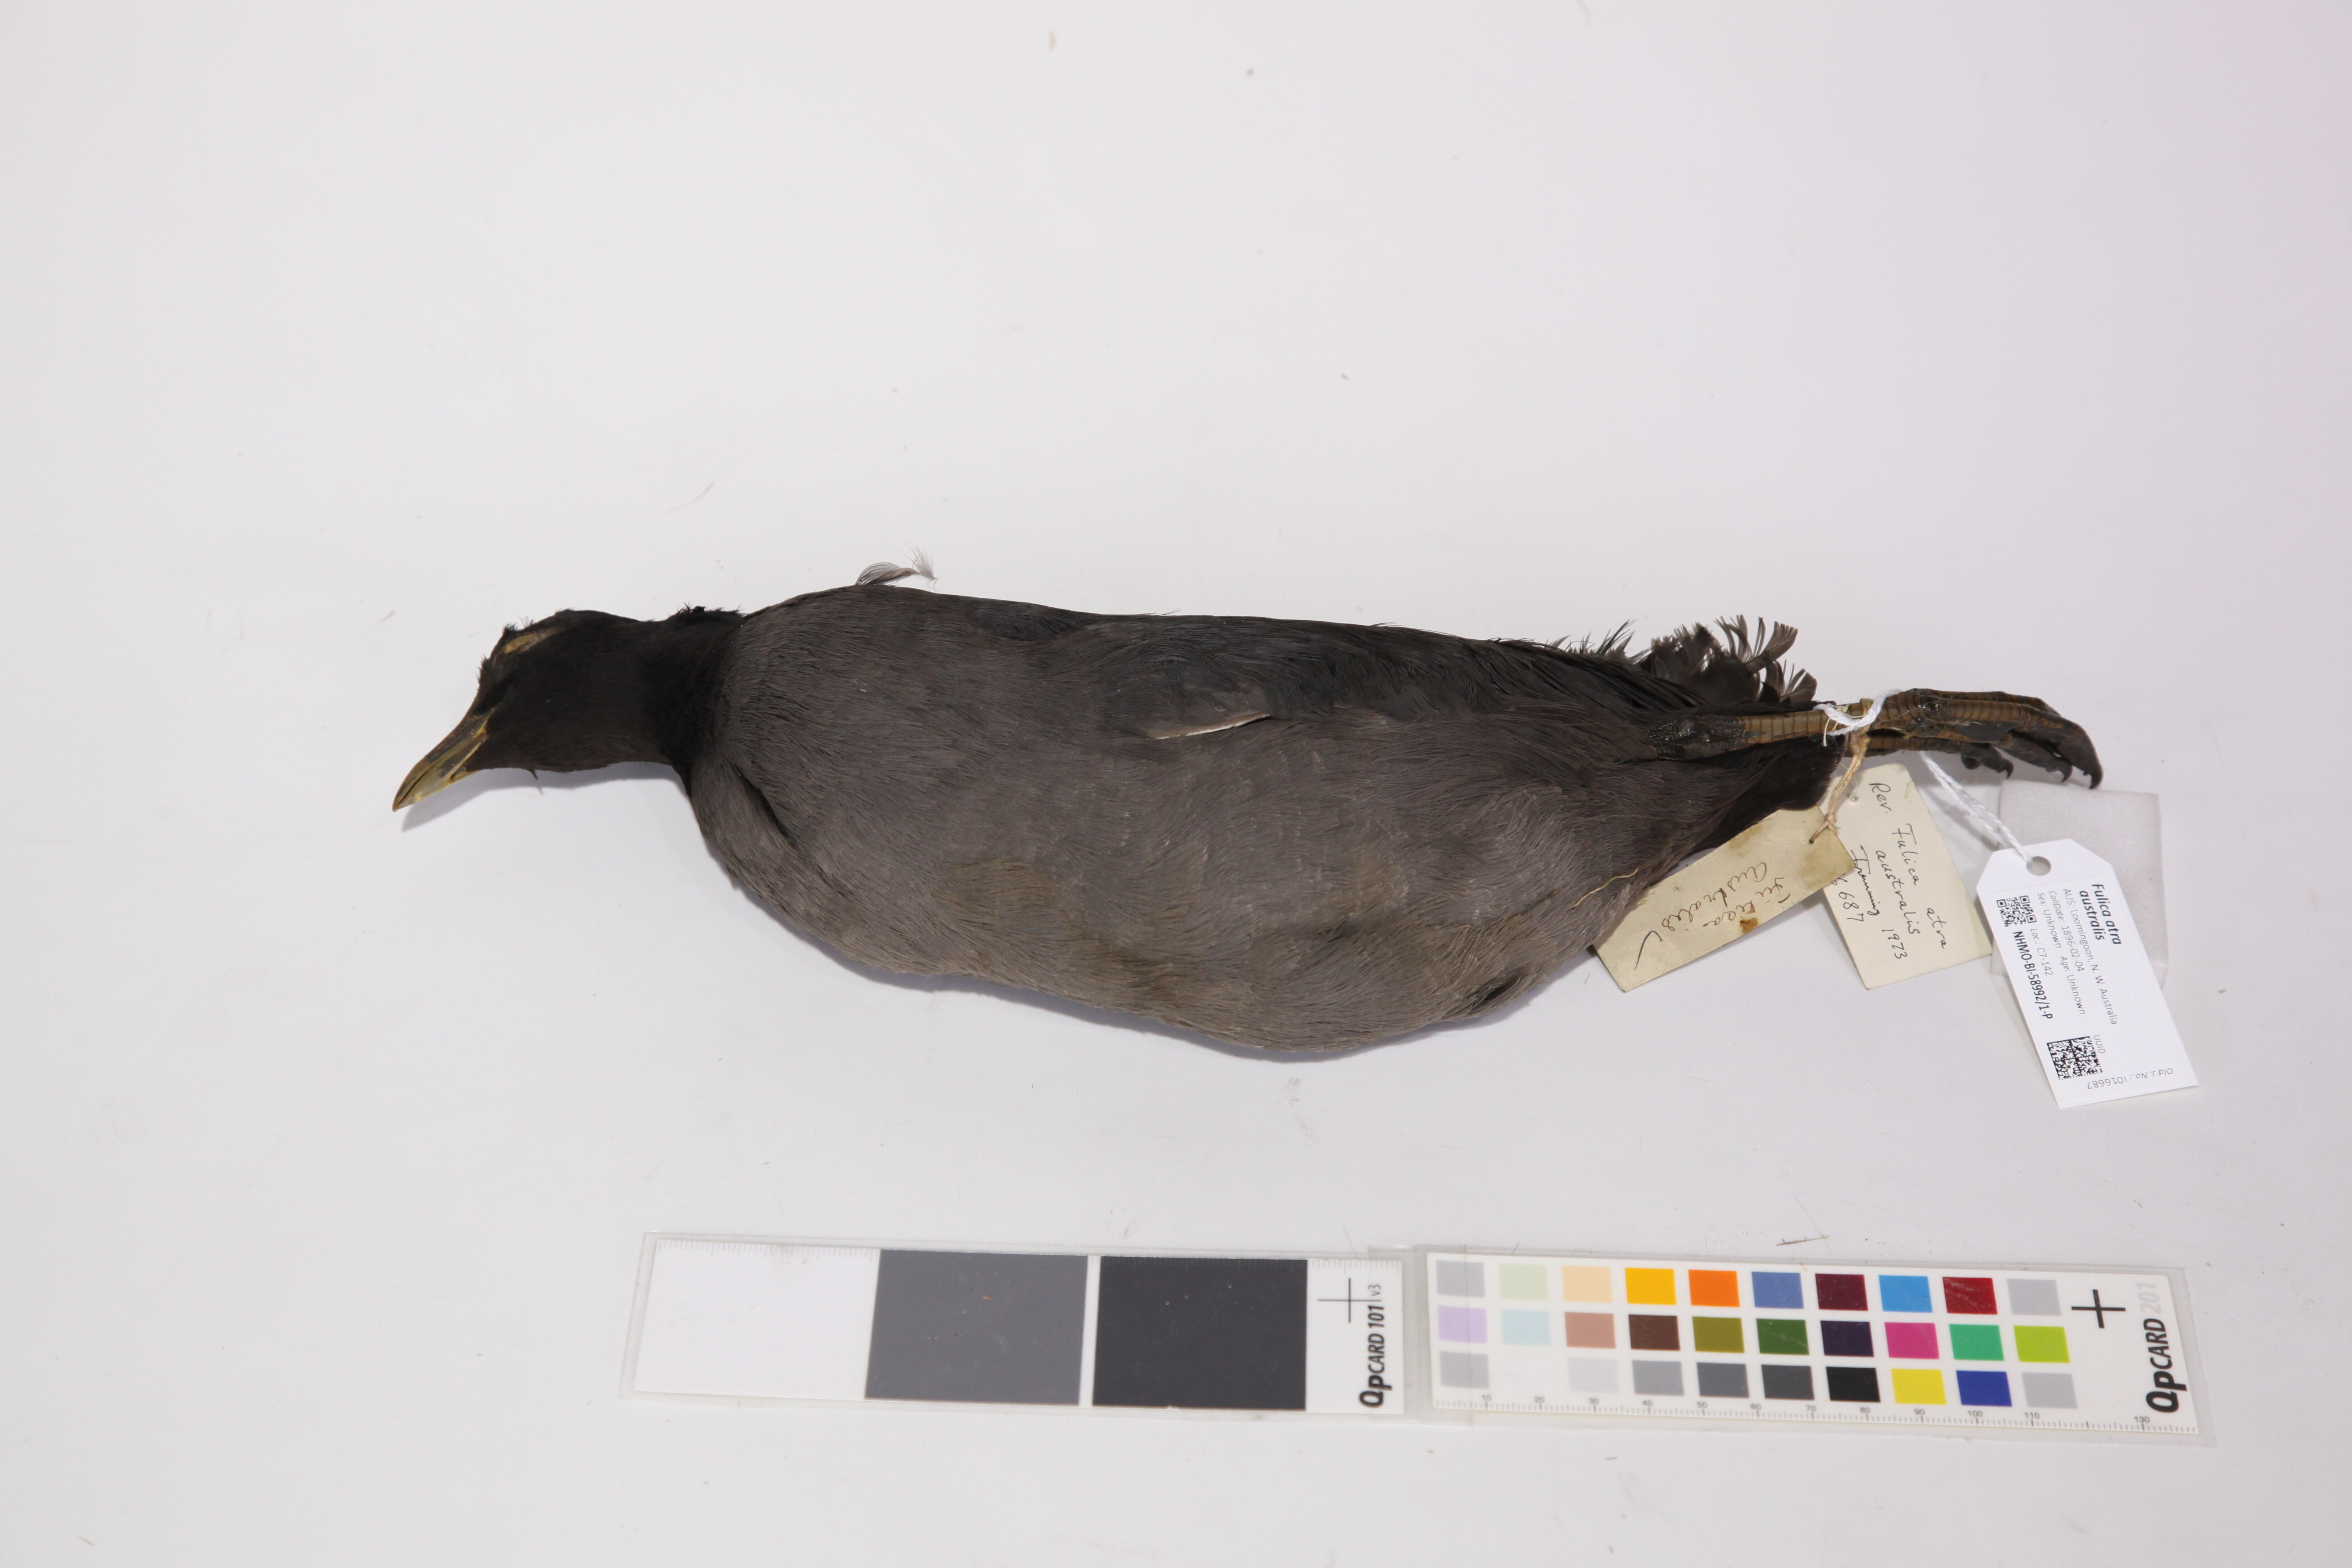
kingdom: Animalia
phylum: Chordata
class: Aves
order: Gruiformes
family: Rallidae
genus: Fulica
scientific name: Fulica atra
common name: Eurasian coot
